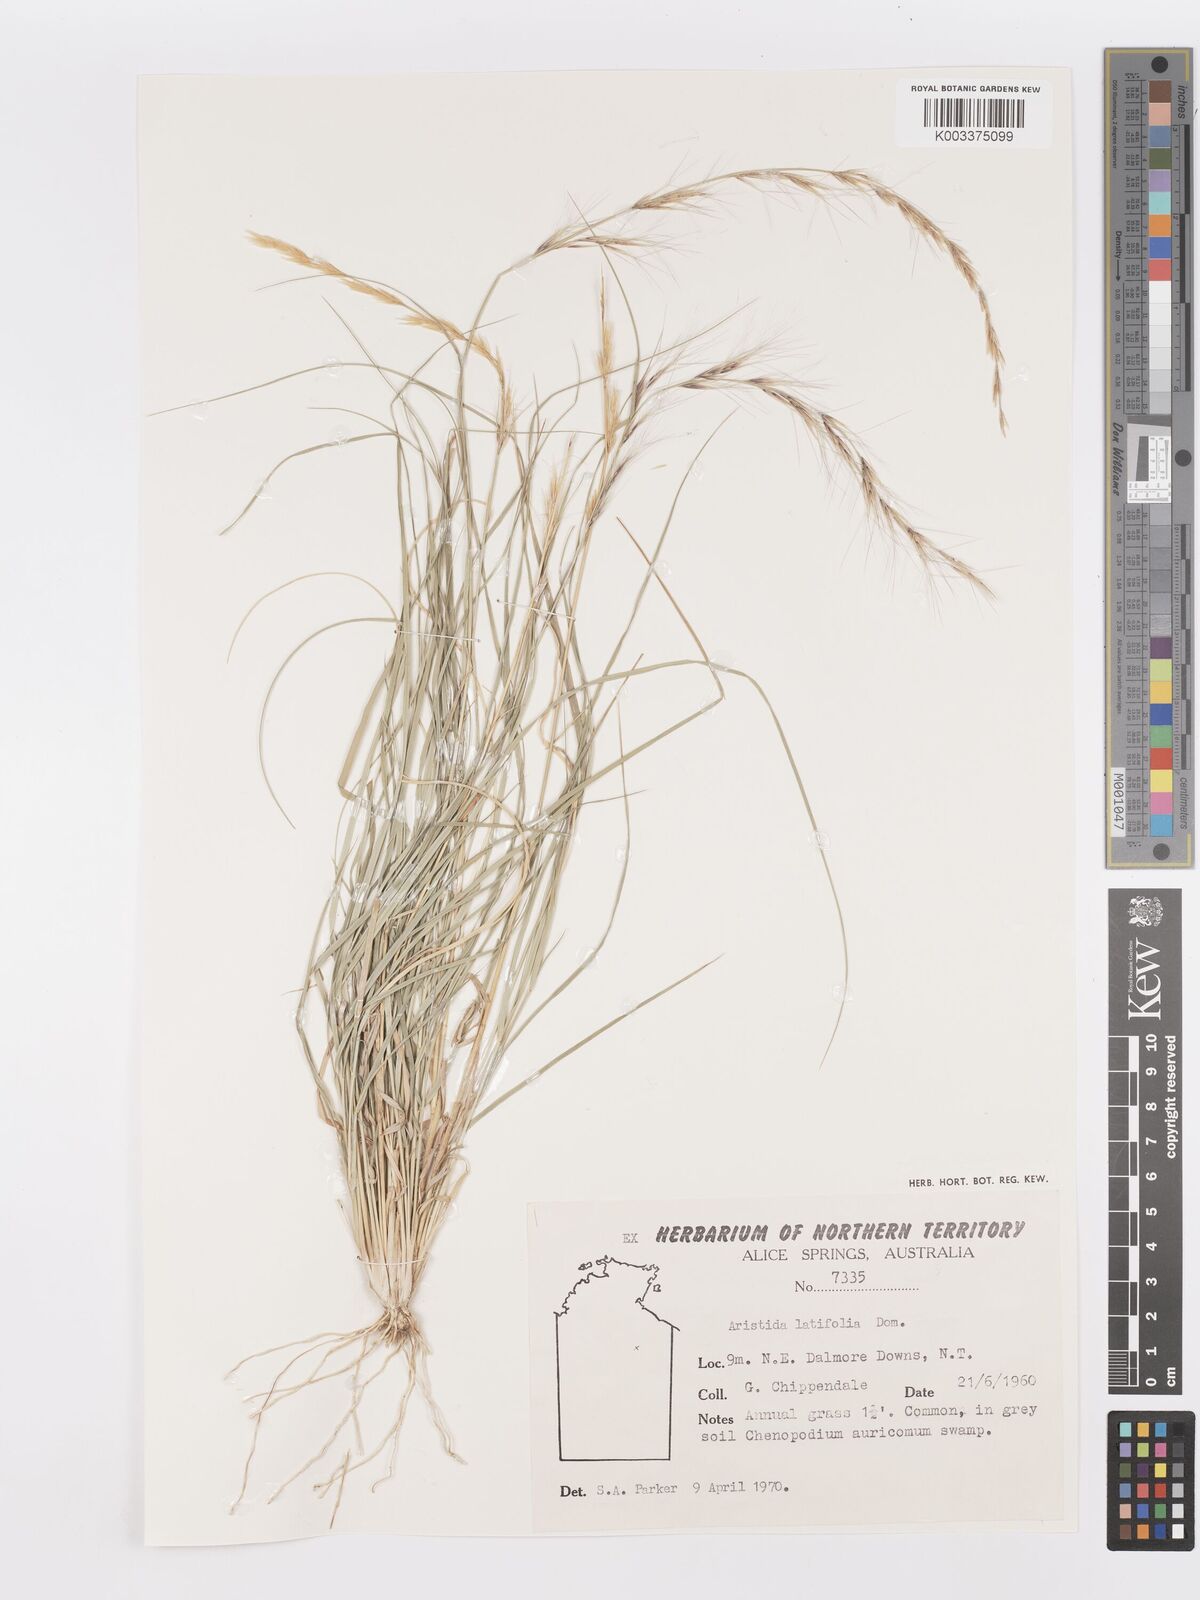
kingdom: Plantae
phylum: Tracheophyta
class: Liliopsida
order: Poales
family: Poaceae
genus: Aristida
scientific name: Aristida latifolia
